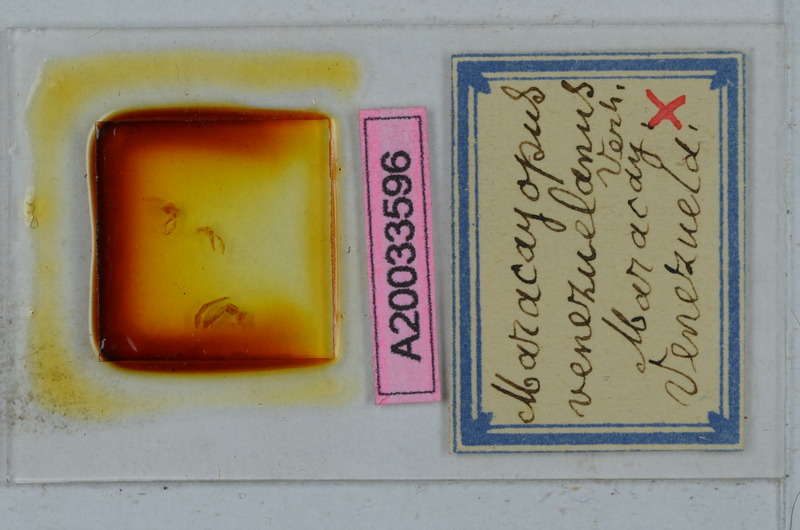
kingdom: Animalia
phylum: Arthropoda
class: Diplopoda
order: Polydesmida
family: Chelodesmidae
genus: Alocodesmus
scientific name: Alocodesmus gracilicornis
